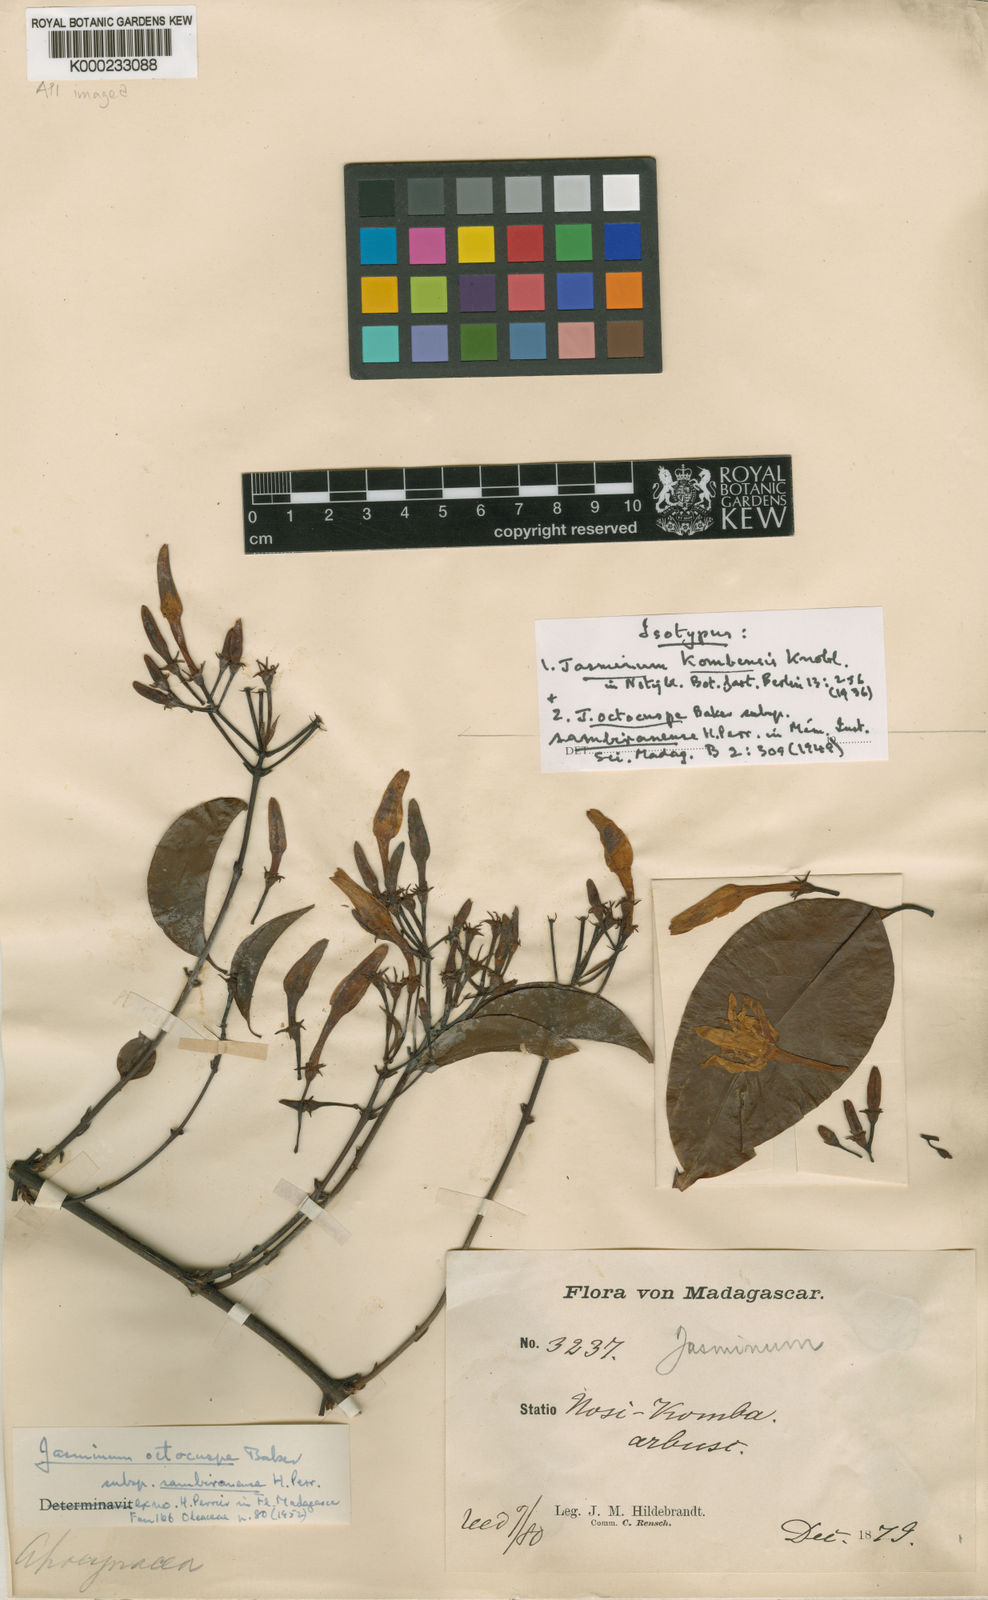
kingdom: Plantae
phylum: Tracheophyta
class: Magnoliopsida
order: Lamiales
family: Oleaceae
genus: Jasminum
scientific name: Jasminum octocuspe
